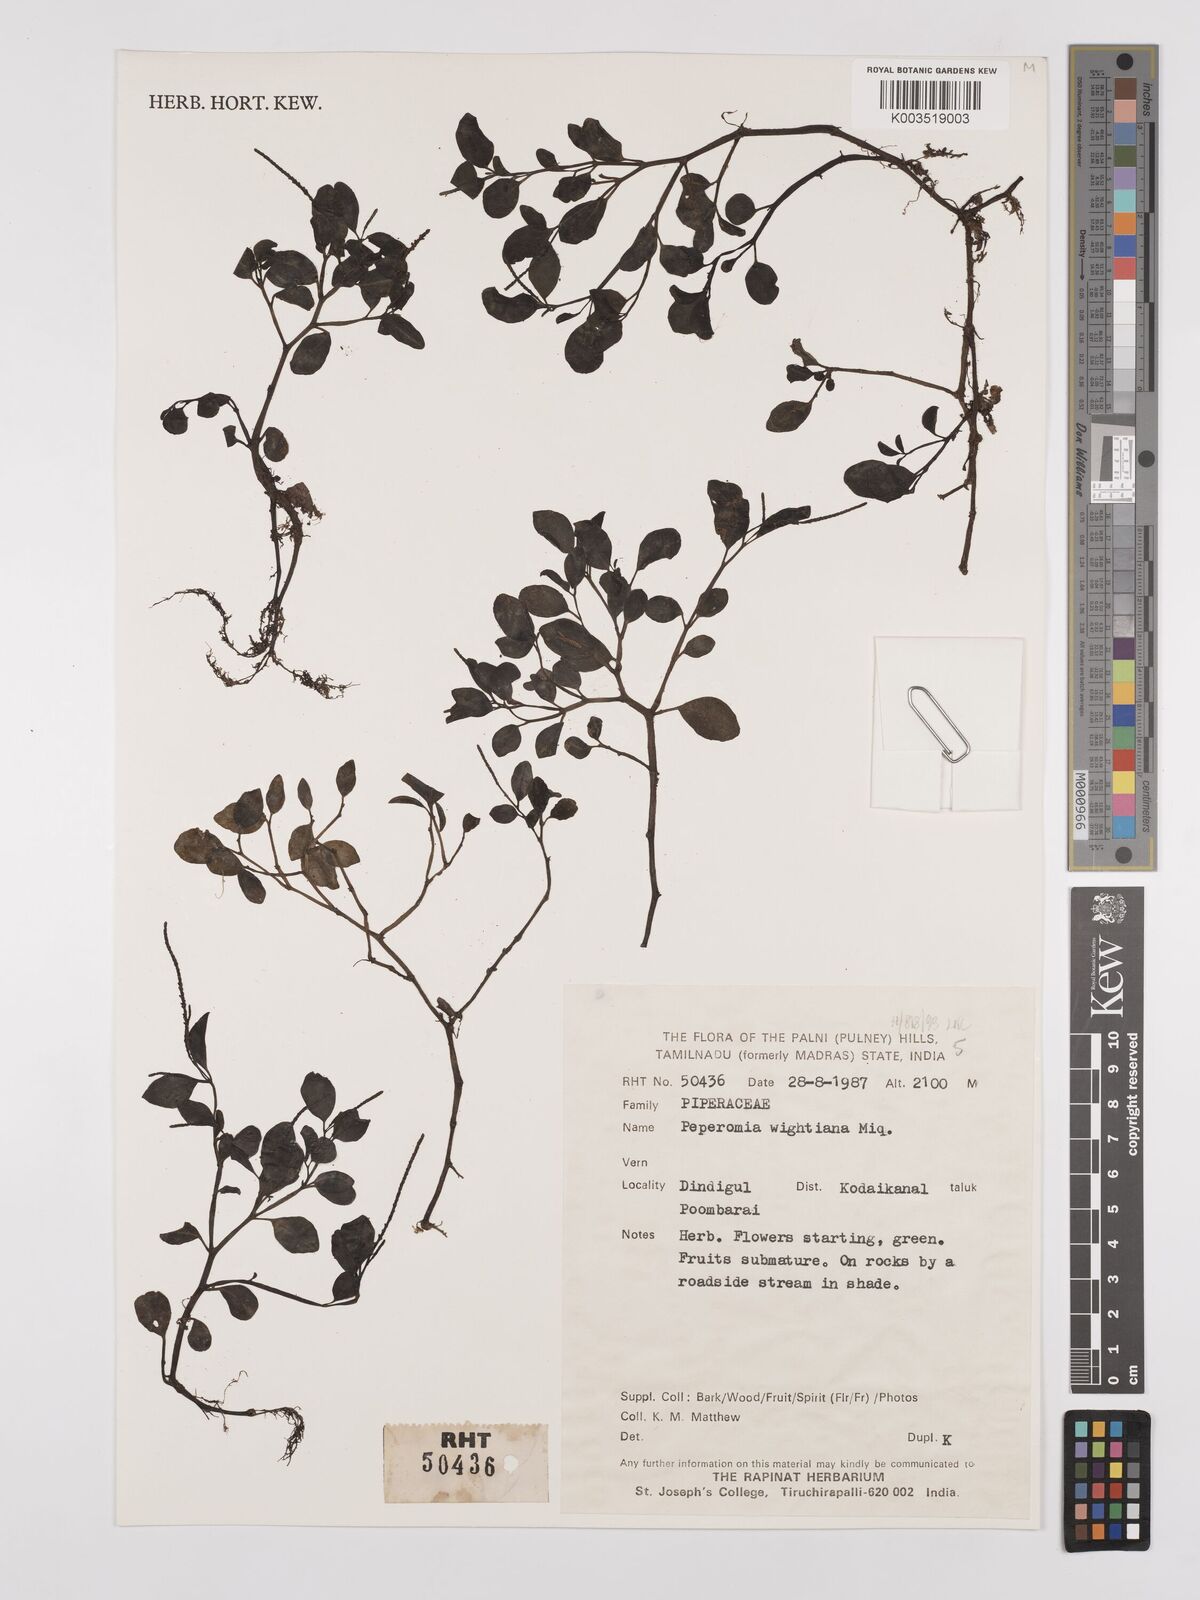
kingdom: Plantae
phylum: Tracheophyta
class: Magnoliopsida
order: Piperales
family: Piperaceae
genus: Peperomia
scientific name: Peperomia wightiana
